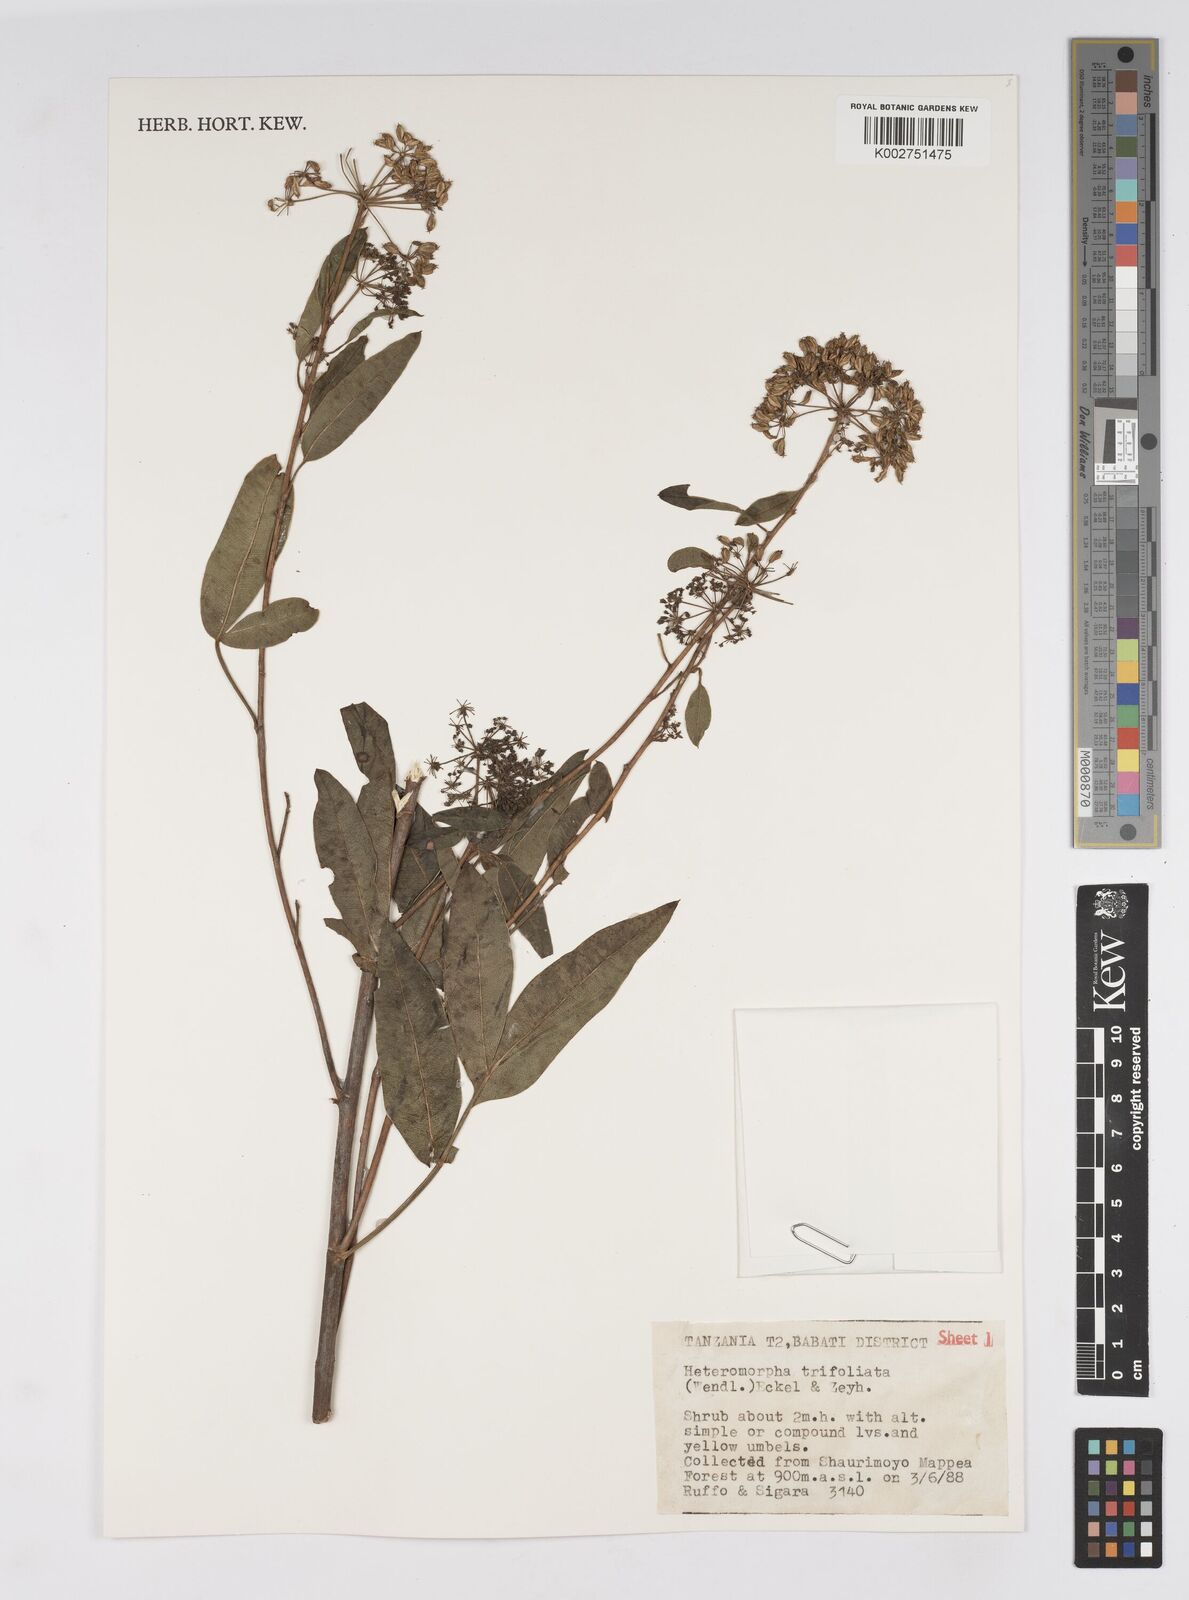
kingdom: Plantae
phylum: Tracheophyta
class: Magnoliopsida
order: Apiales
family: Apiaceae
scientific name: Apiaceae
